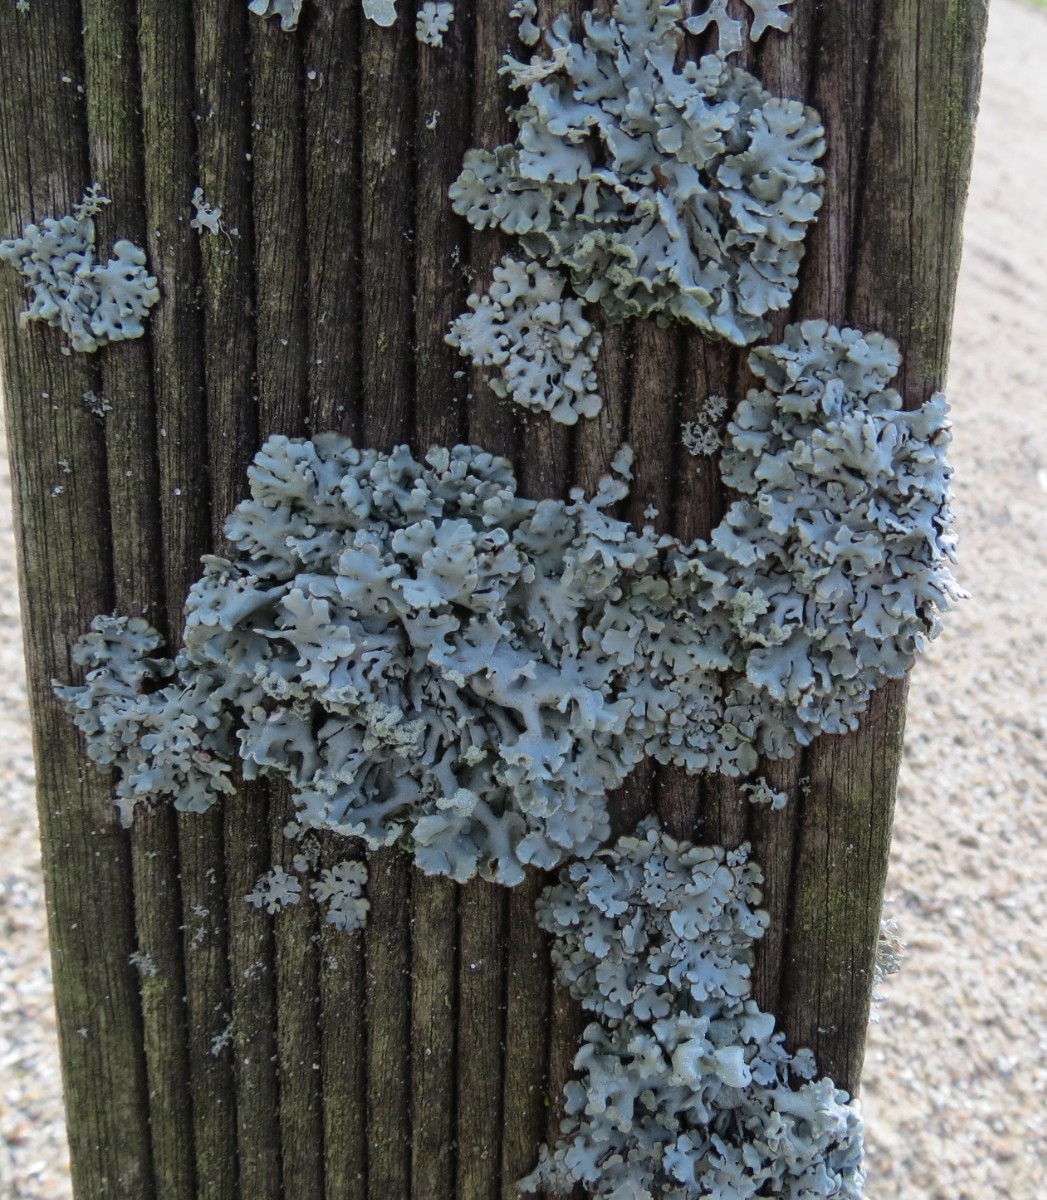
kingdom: Fungi
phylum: Ascomycota
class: Lecanoromycetes
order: Lecanorales
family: Parmeliaceae
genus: Hypogymnia
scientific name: Hypogymnia physodes
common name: almindelig kvistlav
